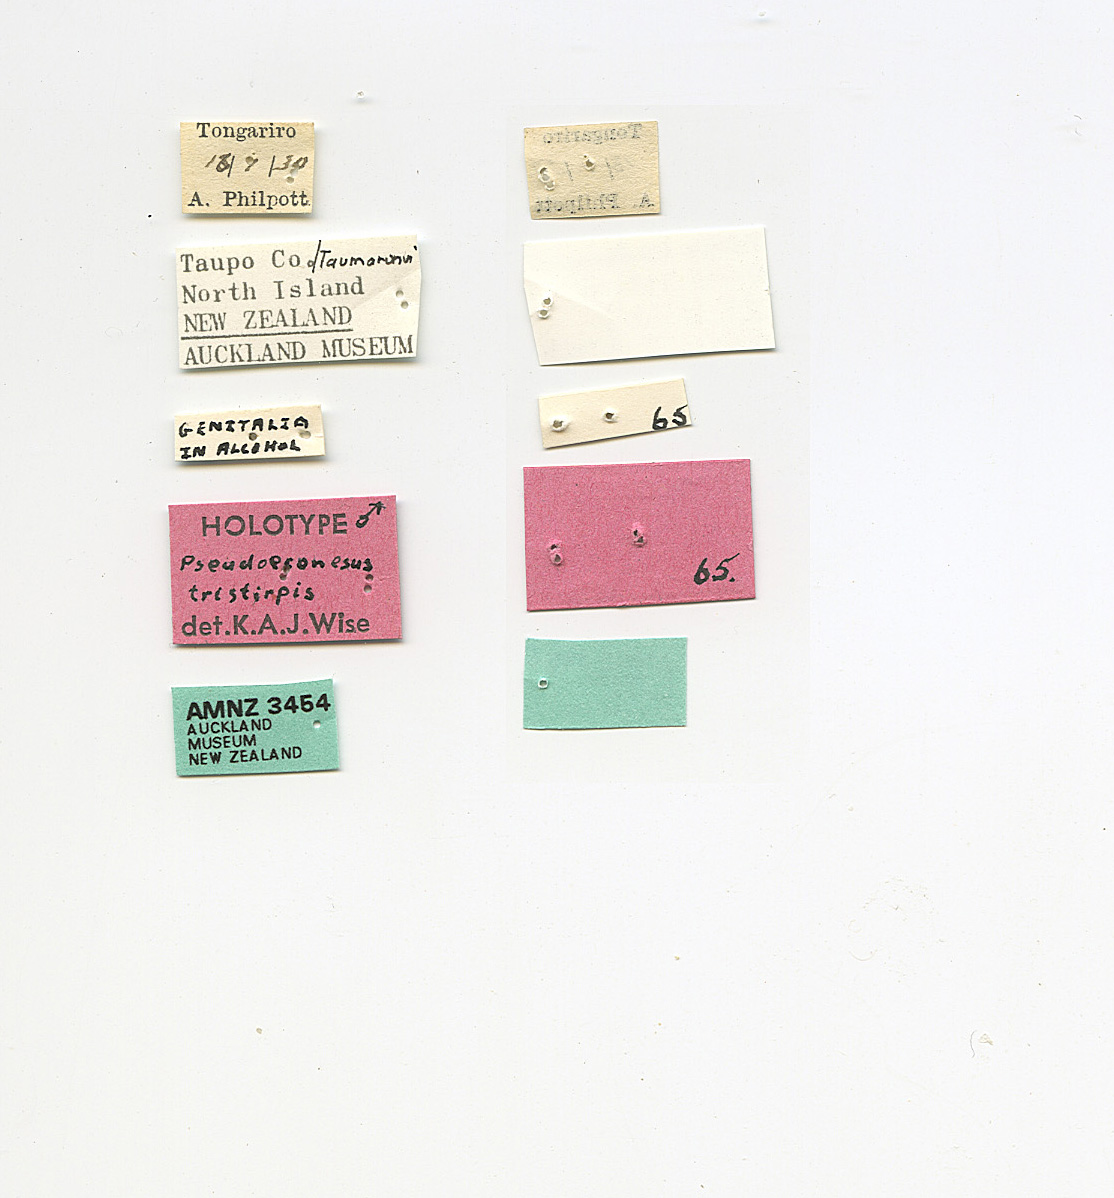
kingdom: Animalia
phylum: Arthropoda
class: Insecta
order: Trichoptera
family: Oeconesidae
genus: Pseudoeconesus
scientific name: Pseudoeconesus bistirpis
